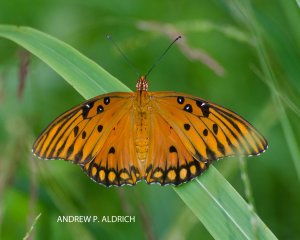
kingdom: Animalia
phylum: Arthropoda
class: Insecta
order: Lepidoptera
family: Nymphalidae
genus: Dione
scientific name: Dione vanillae
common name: Gulf Fritillary
